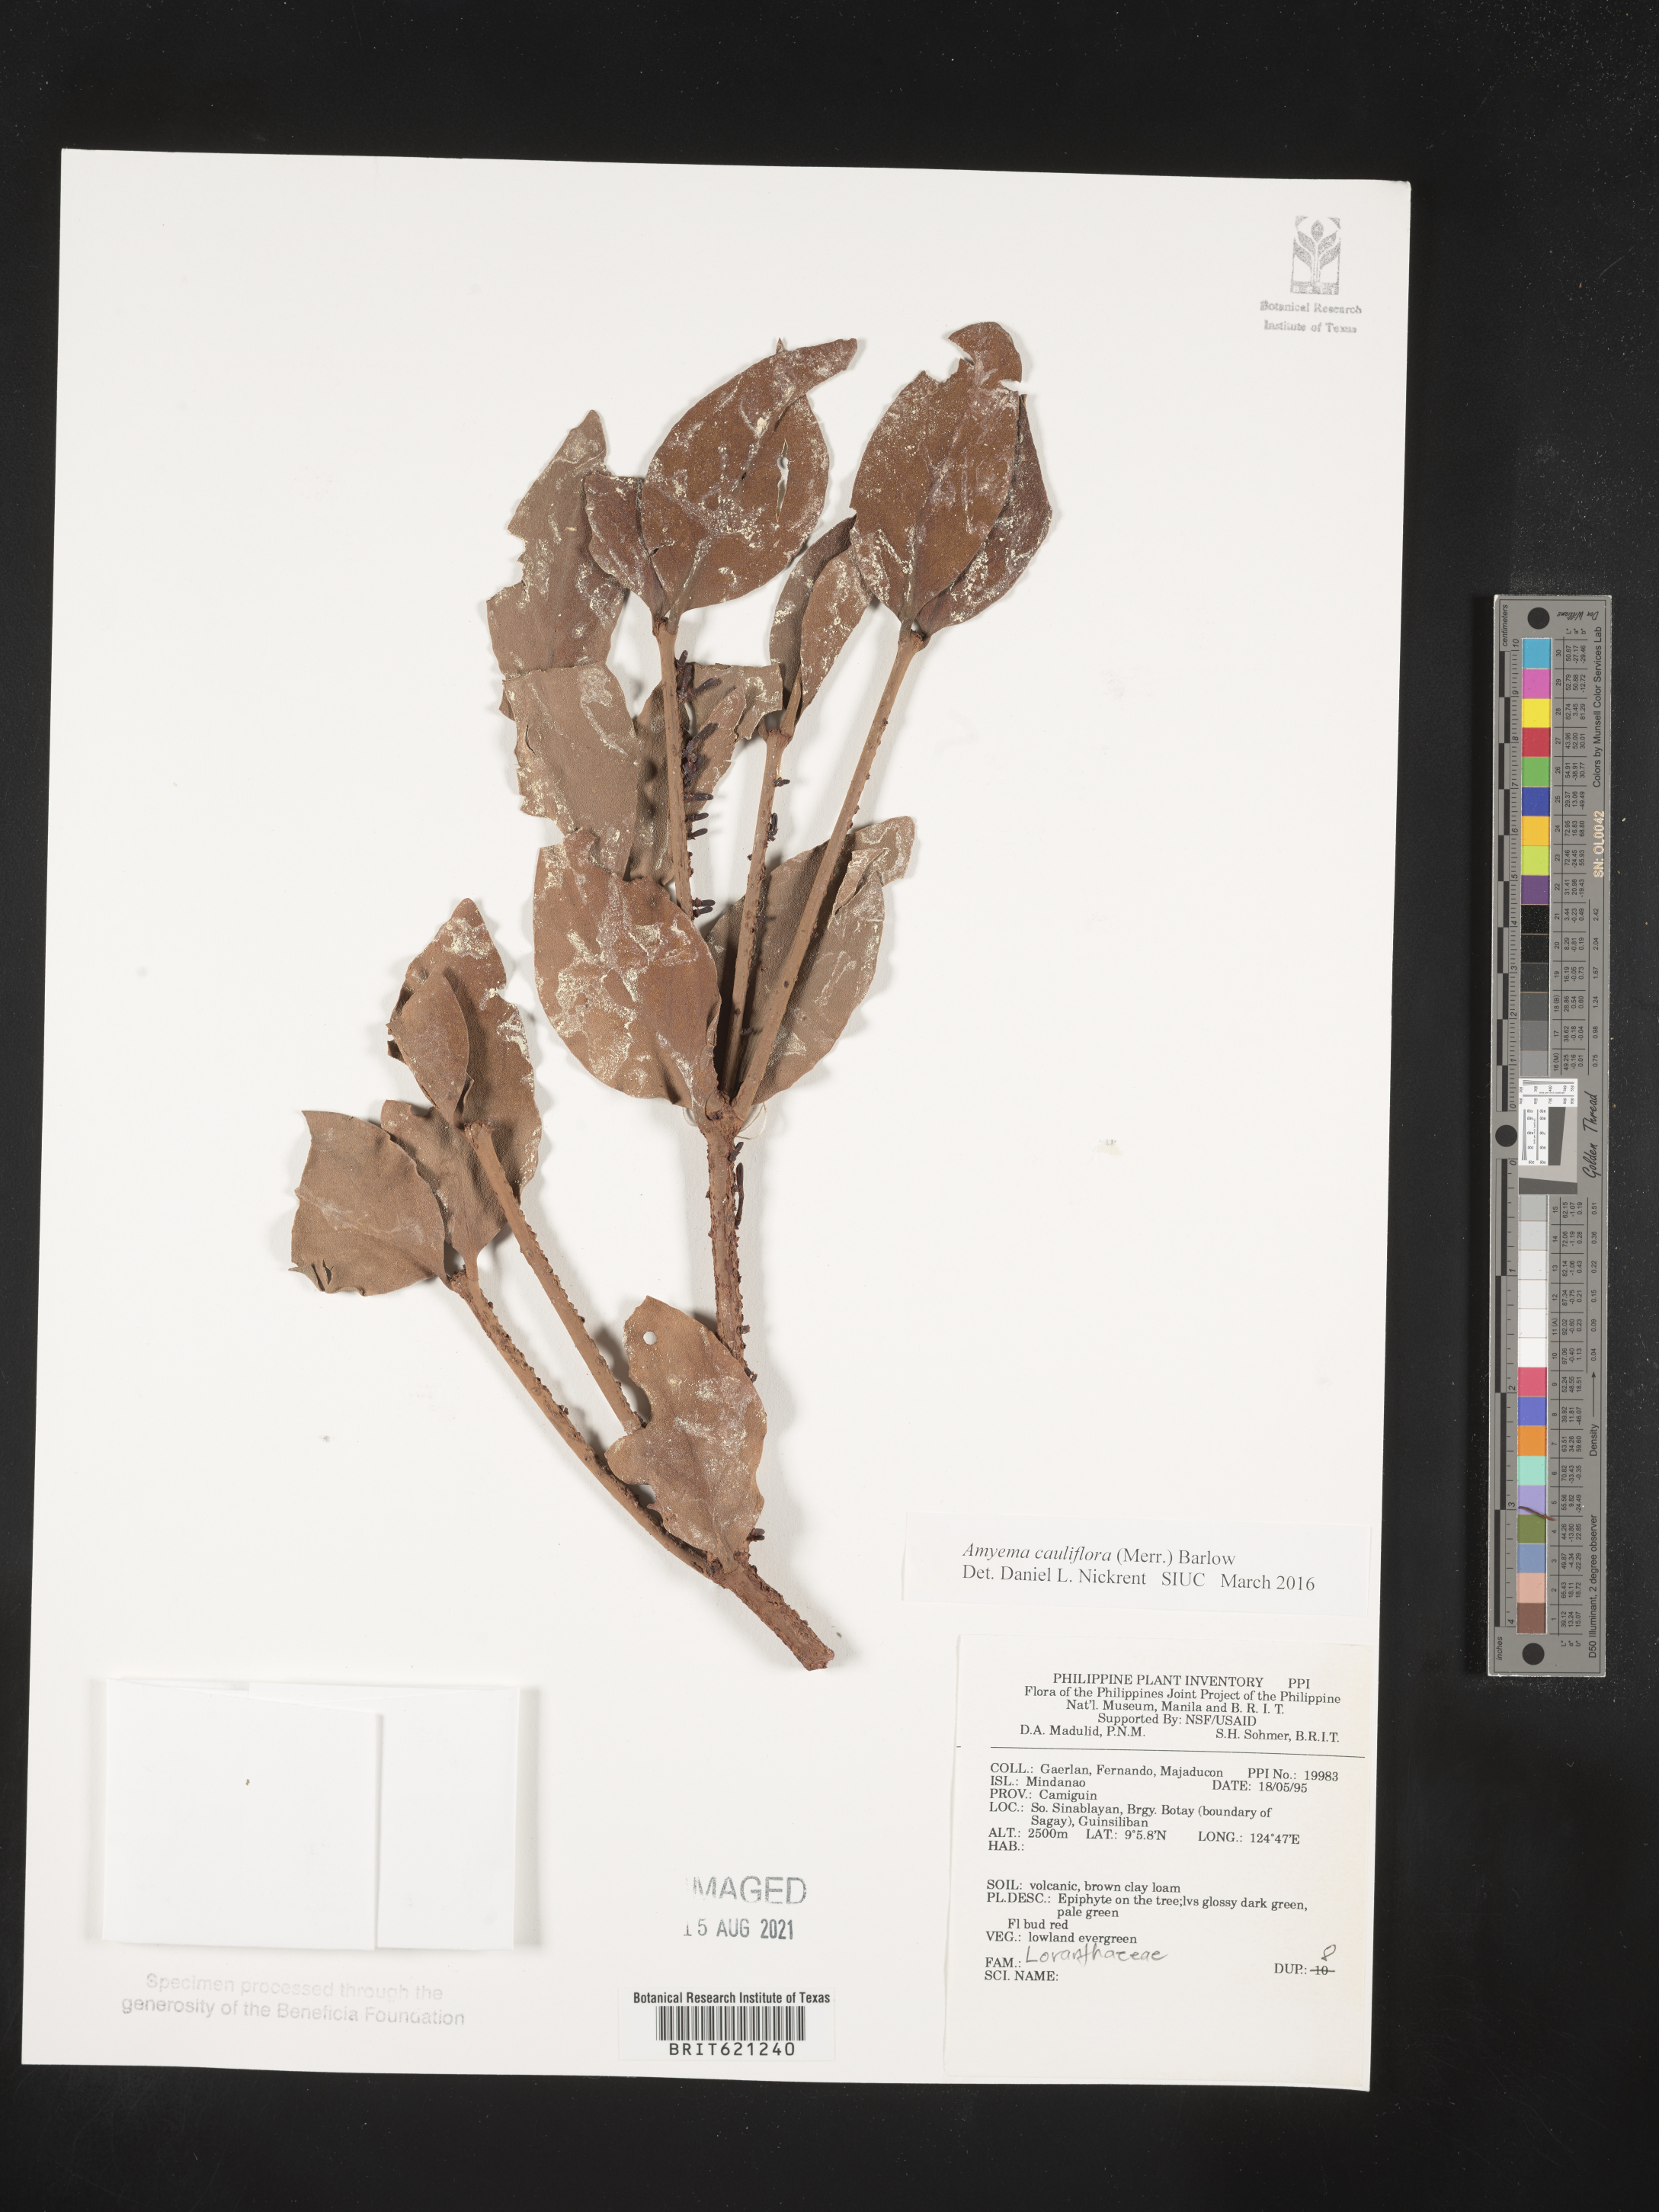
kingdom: Plantae
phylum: Tracheophyta
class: Magnoliopsida
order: Santalales
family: Loranthaceae
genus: Amyema
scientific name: Amyema cauliflora
